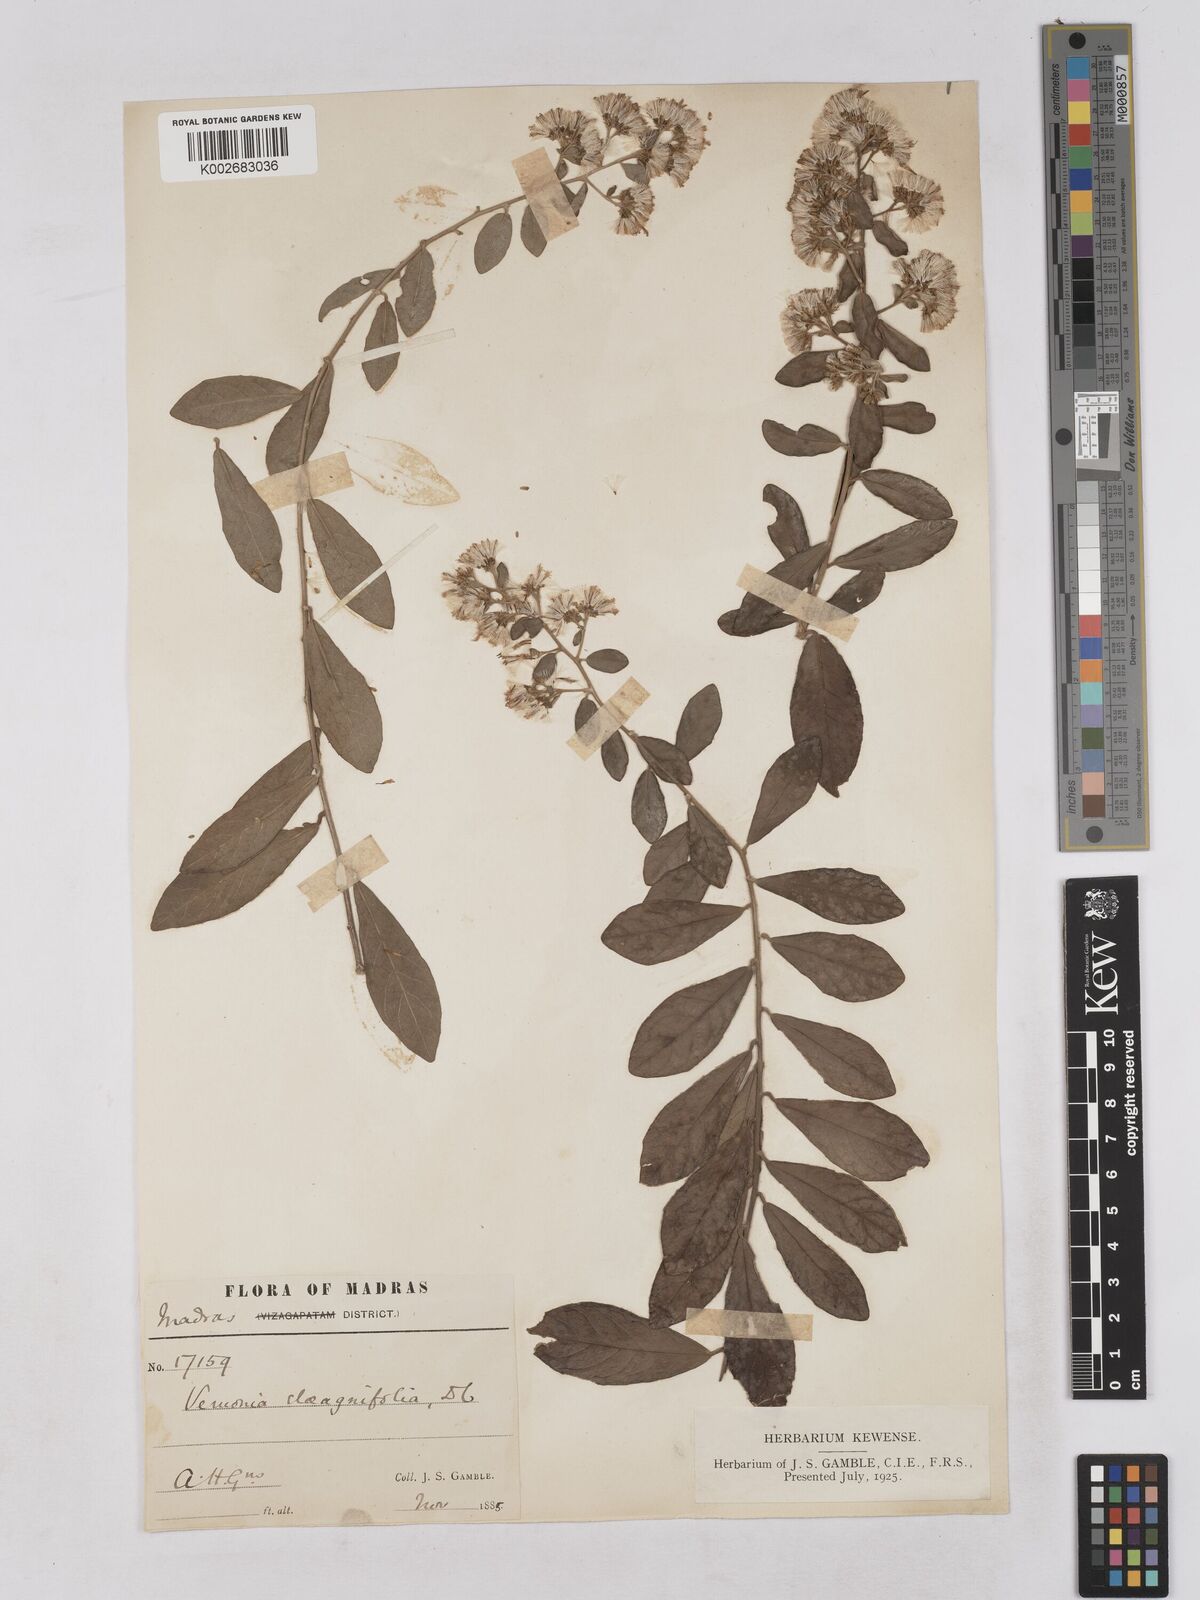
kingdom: Plantae
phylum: Tracheophyta
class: Magnoliopsida
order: Asterales
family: Asteraceae
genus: Tarlmounia
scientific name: Tarlmounia elliptica
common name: Kheua sa lot
